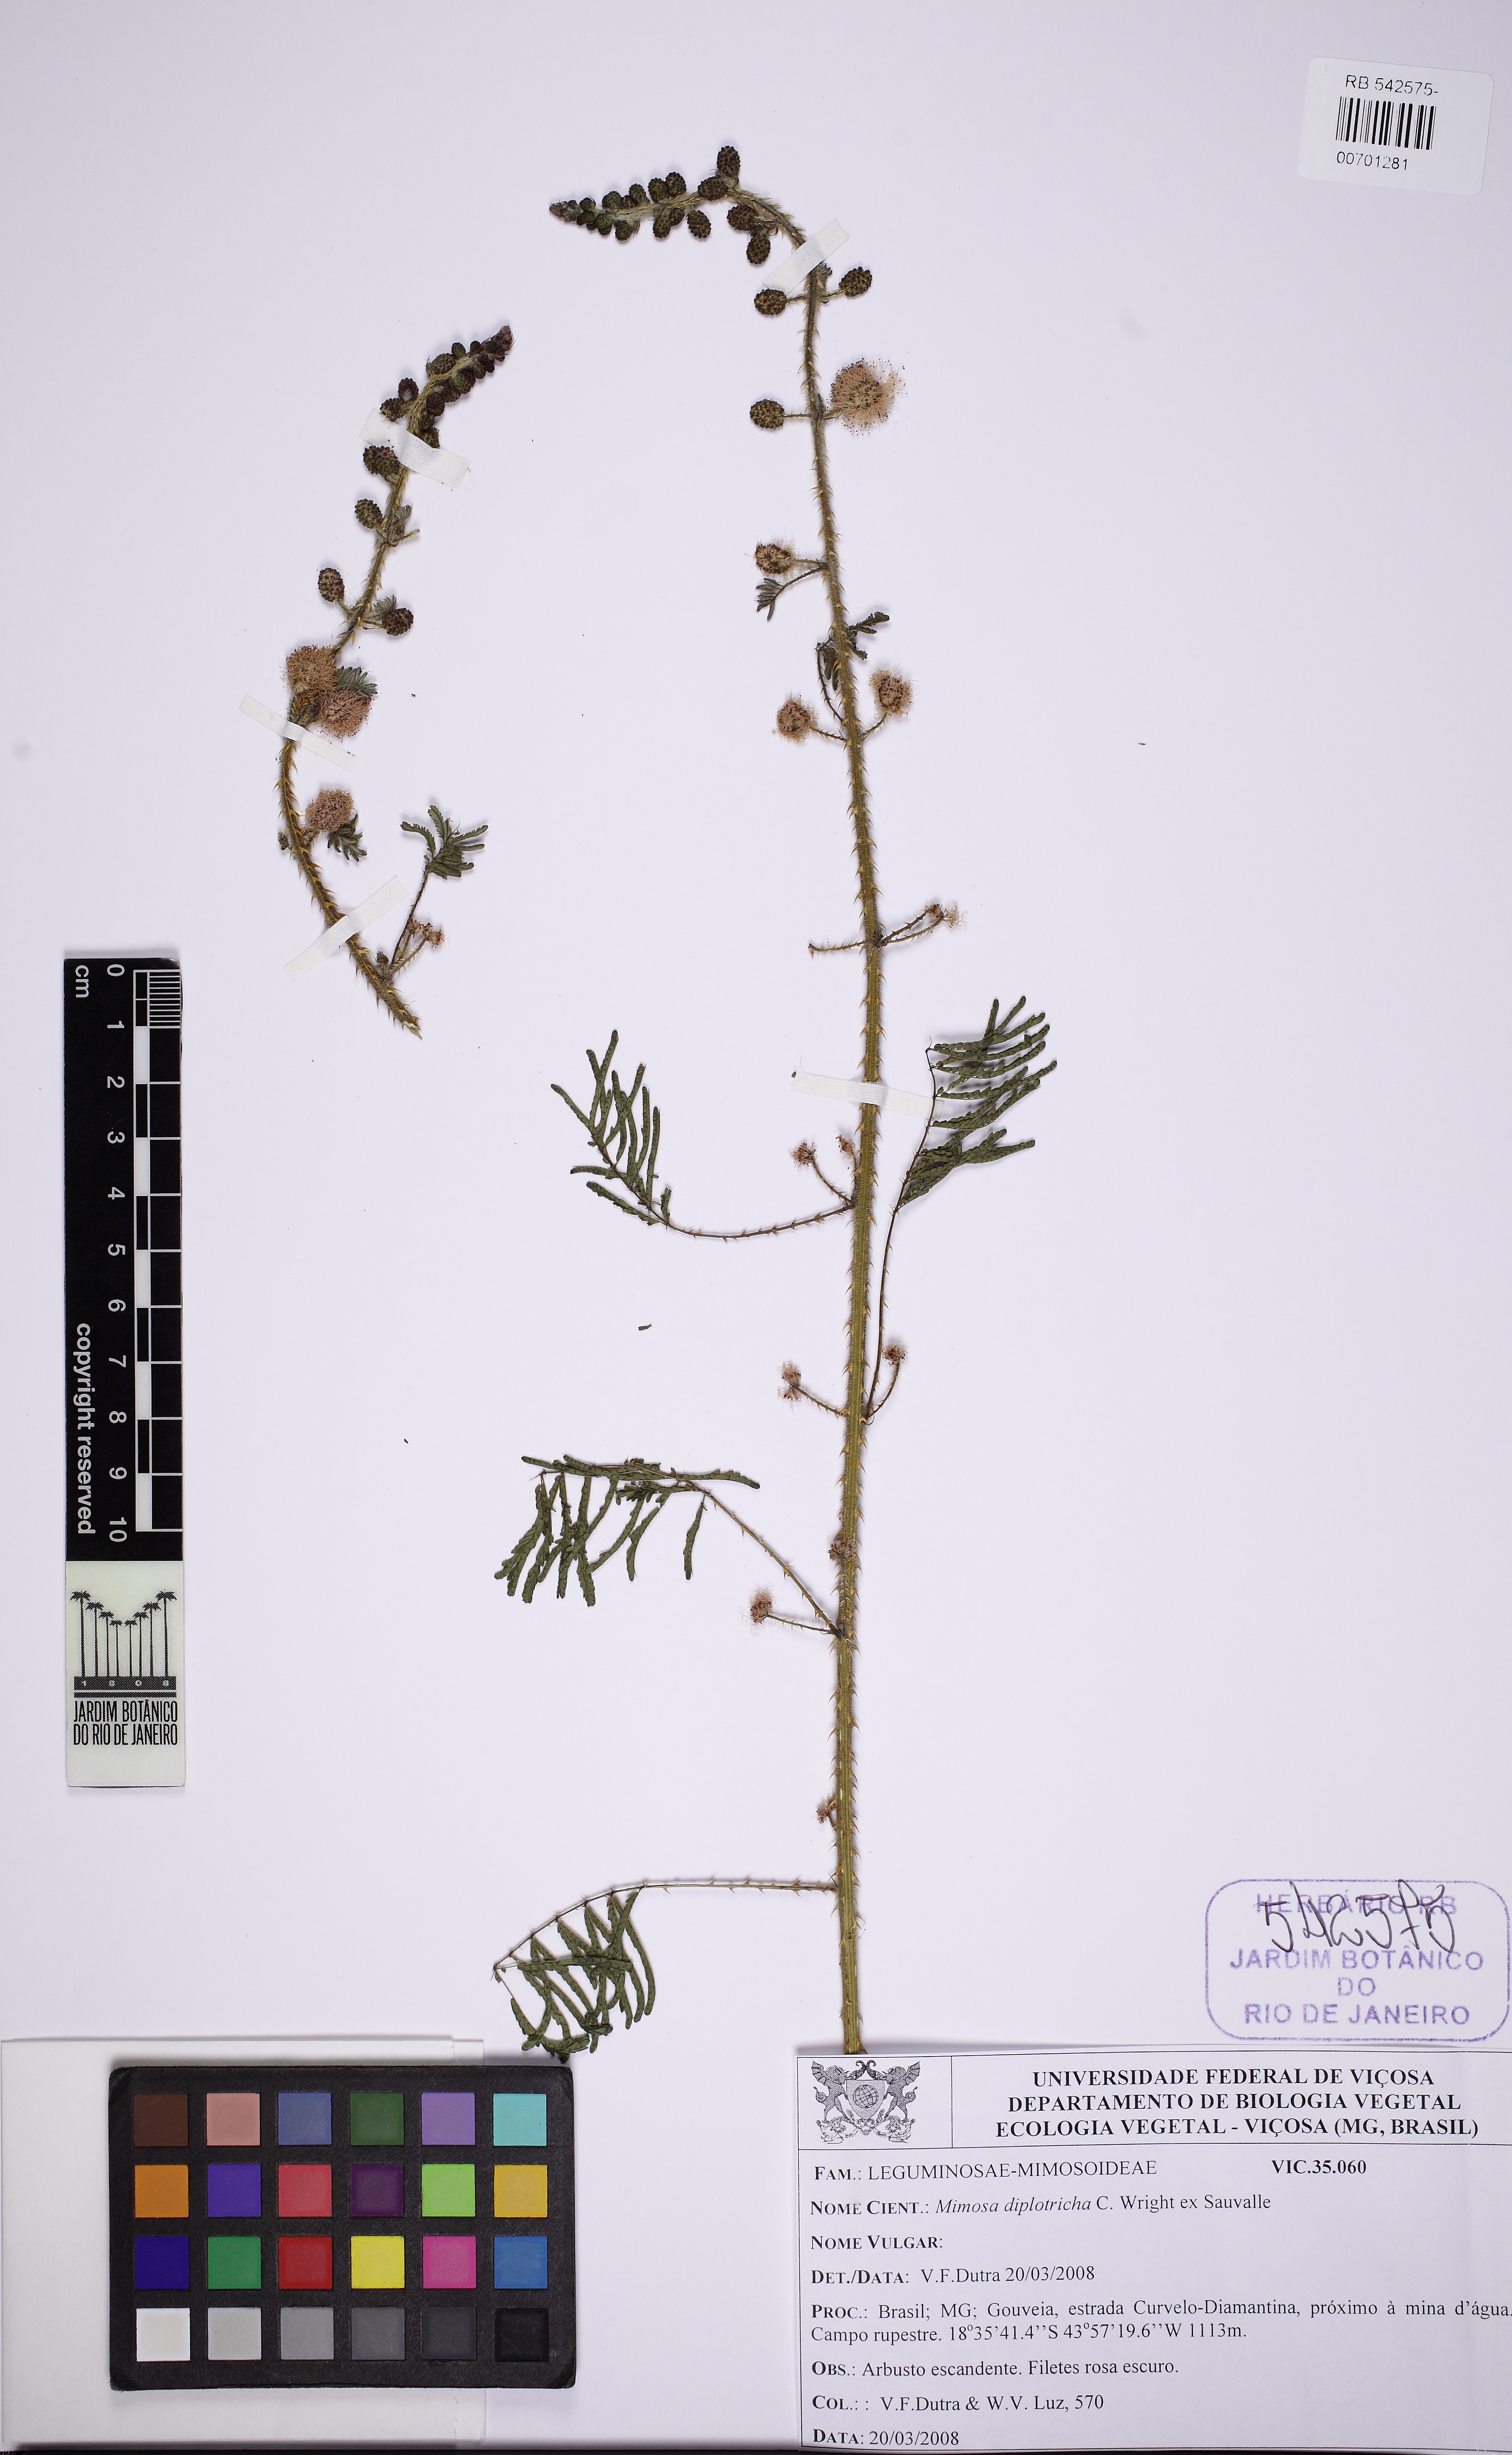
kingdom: Plantae
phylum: Tracheophyta
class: Magnoliopsida
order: Fabales
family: Fabaceae
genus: Mimosa
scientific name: Mimosa diplotricha
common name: Giant sensitive-plant
